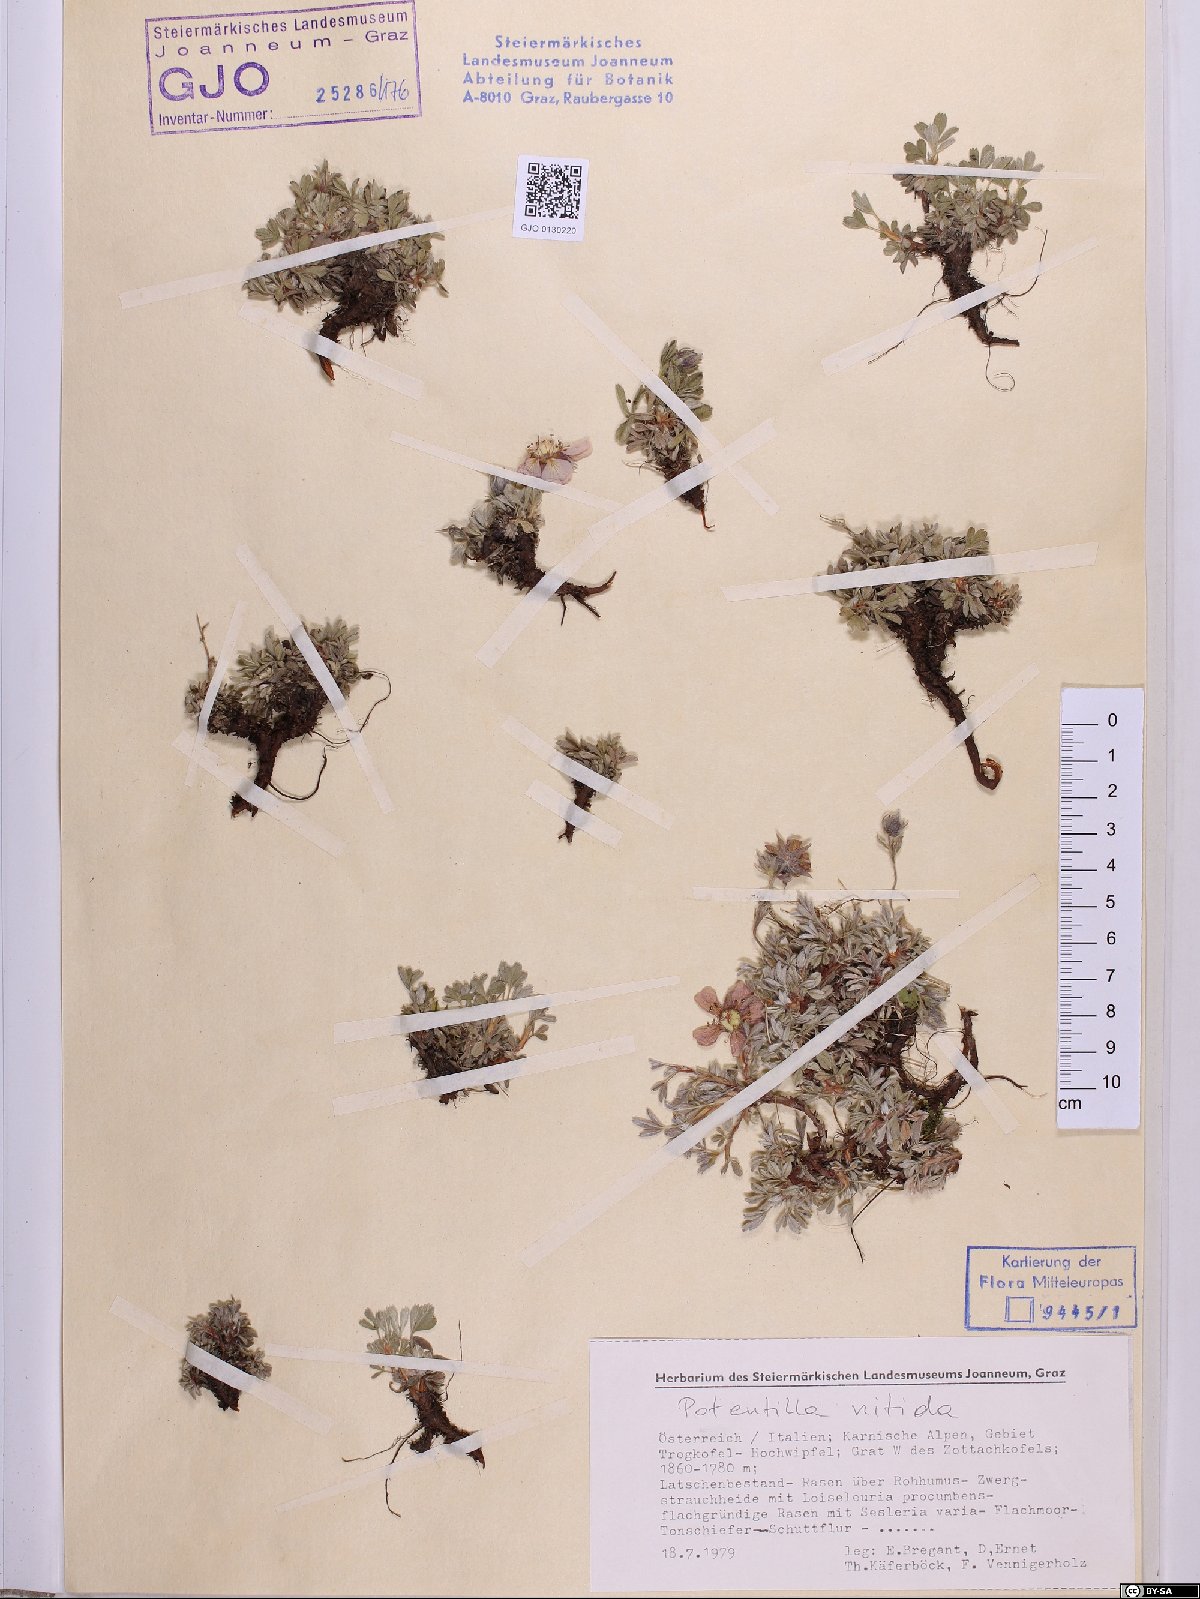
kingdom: Plantae
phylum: Tracheophyta
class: Magnoliopsida
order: Rosales
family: Rosaceae
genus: Potentilla
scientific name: Potentilla nitida
